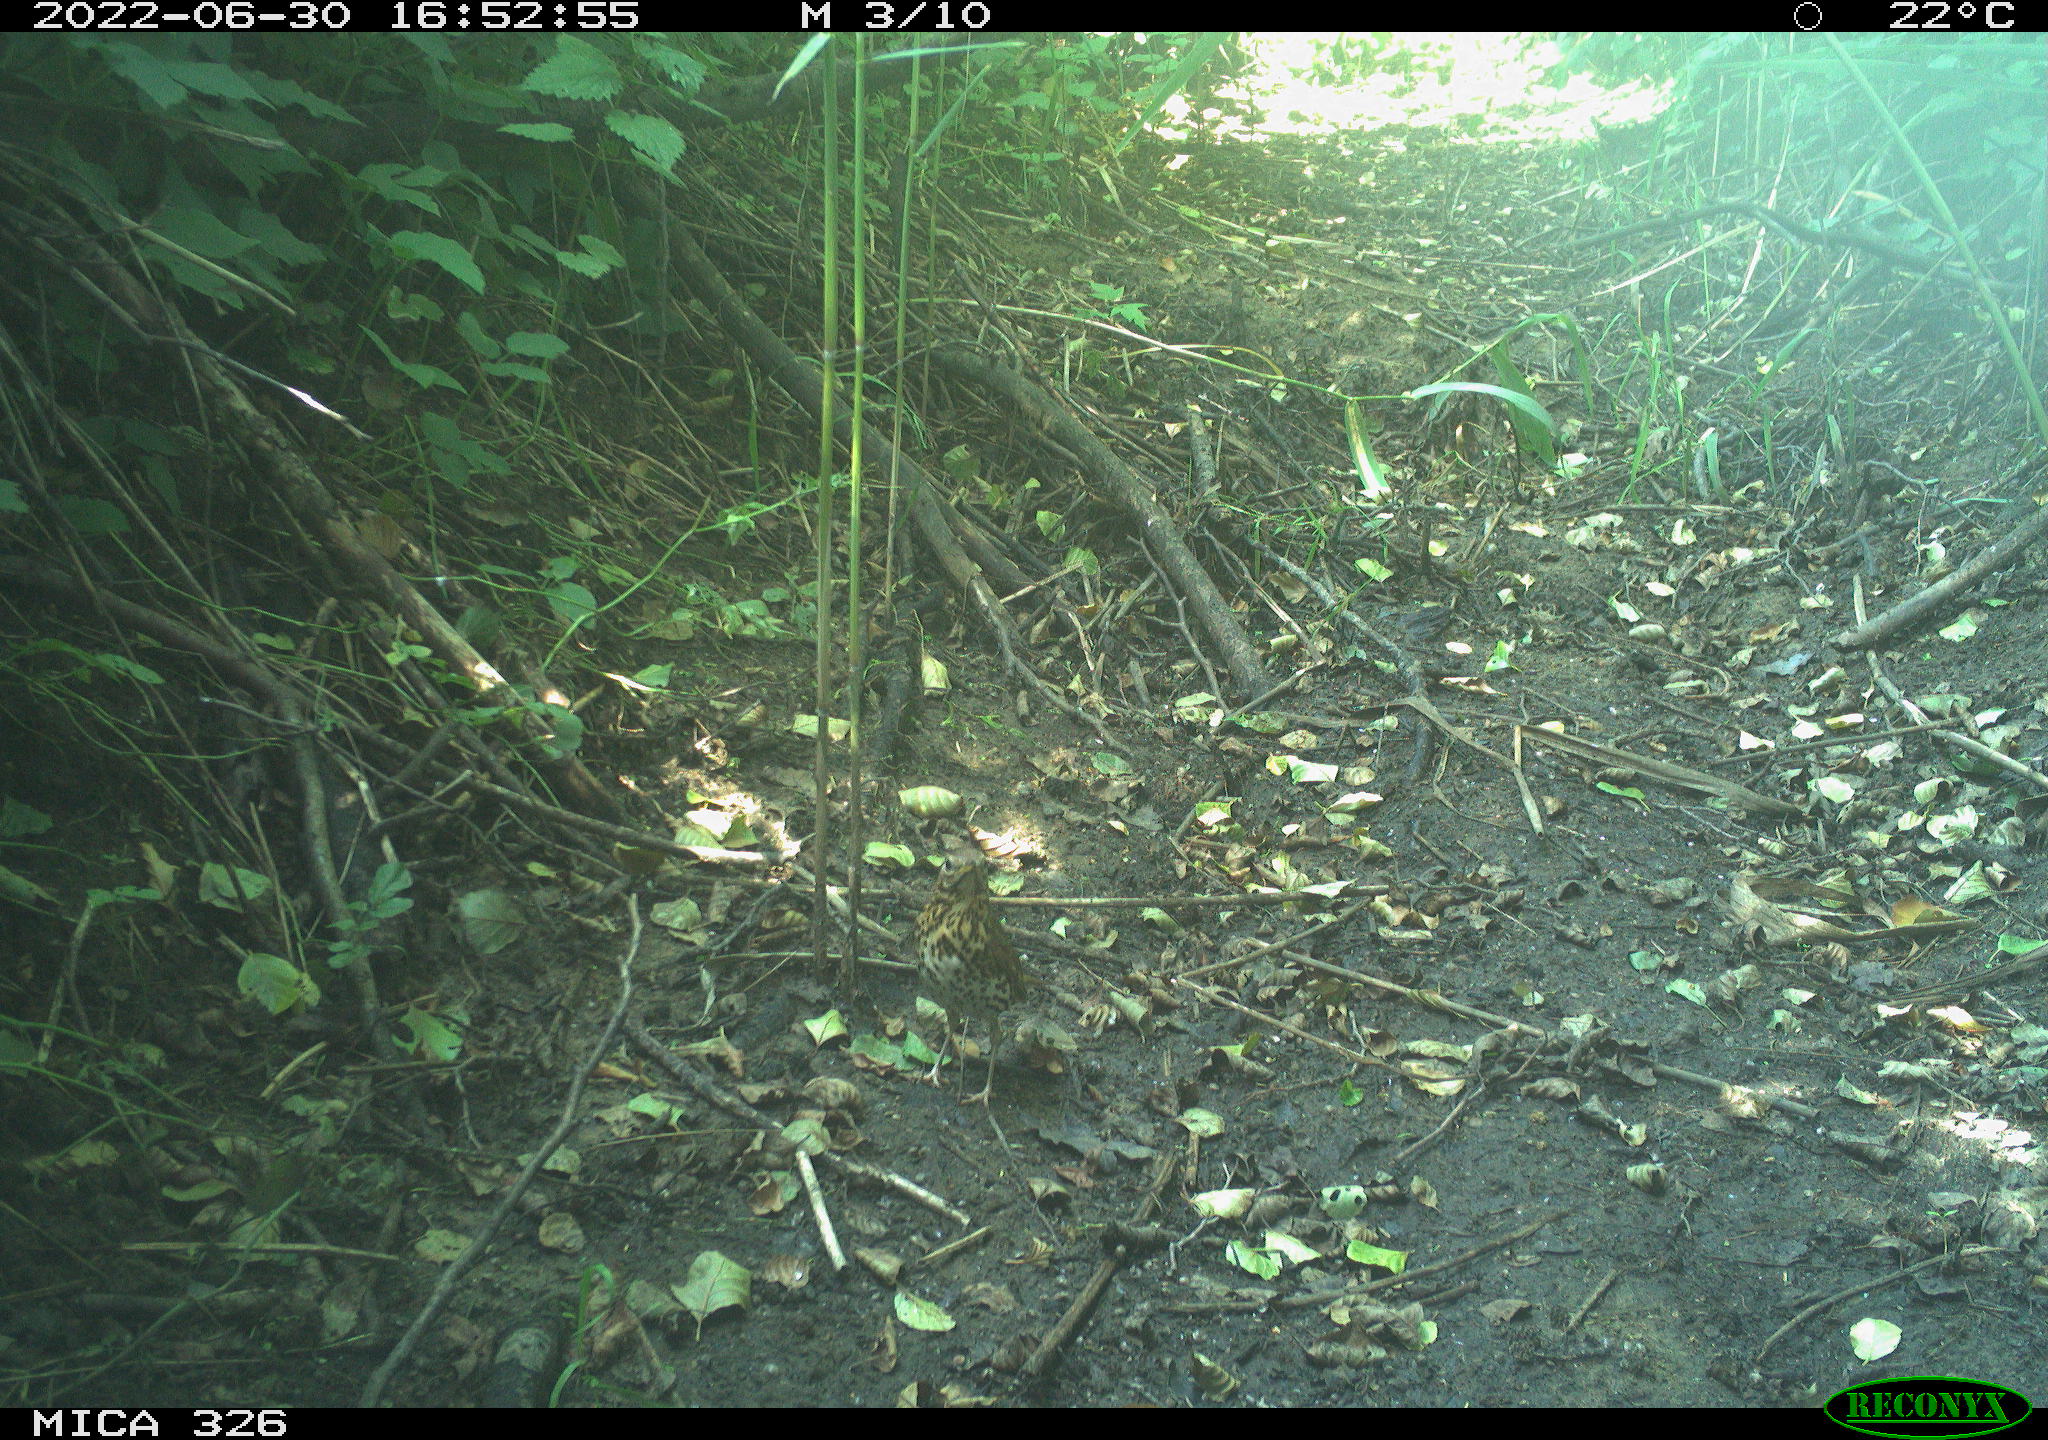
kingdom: Animalia
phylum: Chordata
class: Aves
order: Passeriformes
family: Turdidae
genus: Turdus
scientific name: Turdus philomelos
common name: Song thrush
